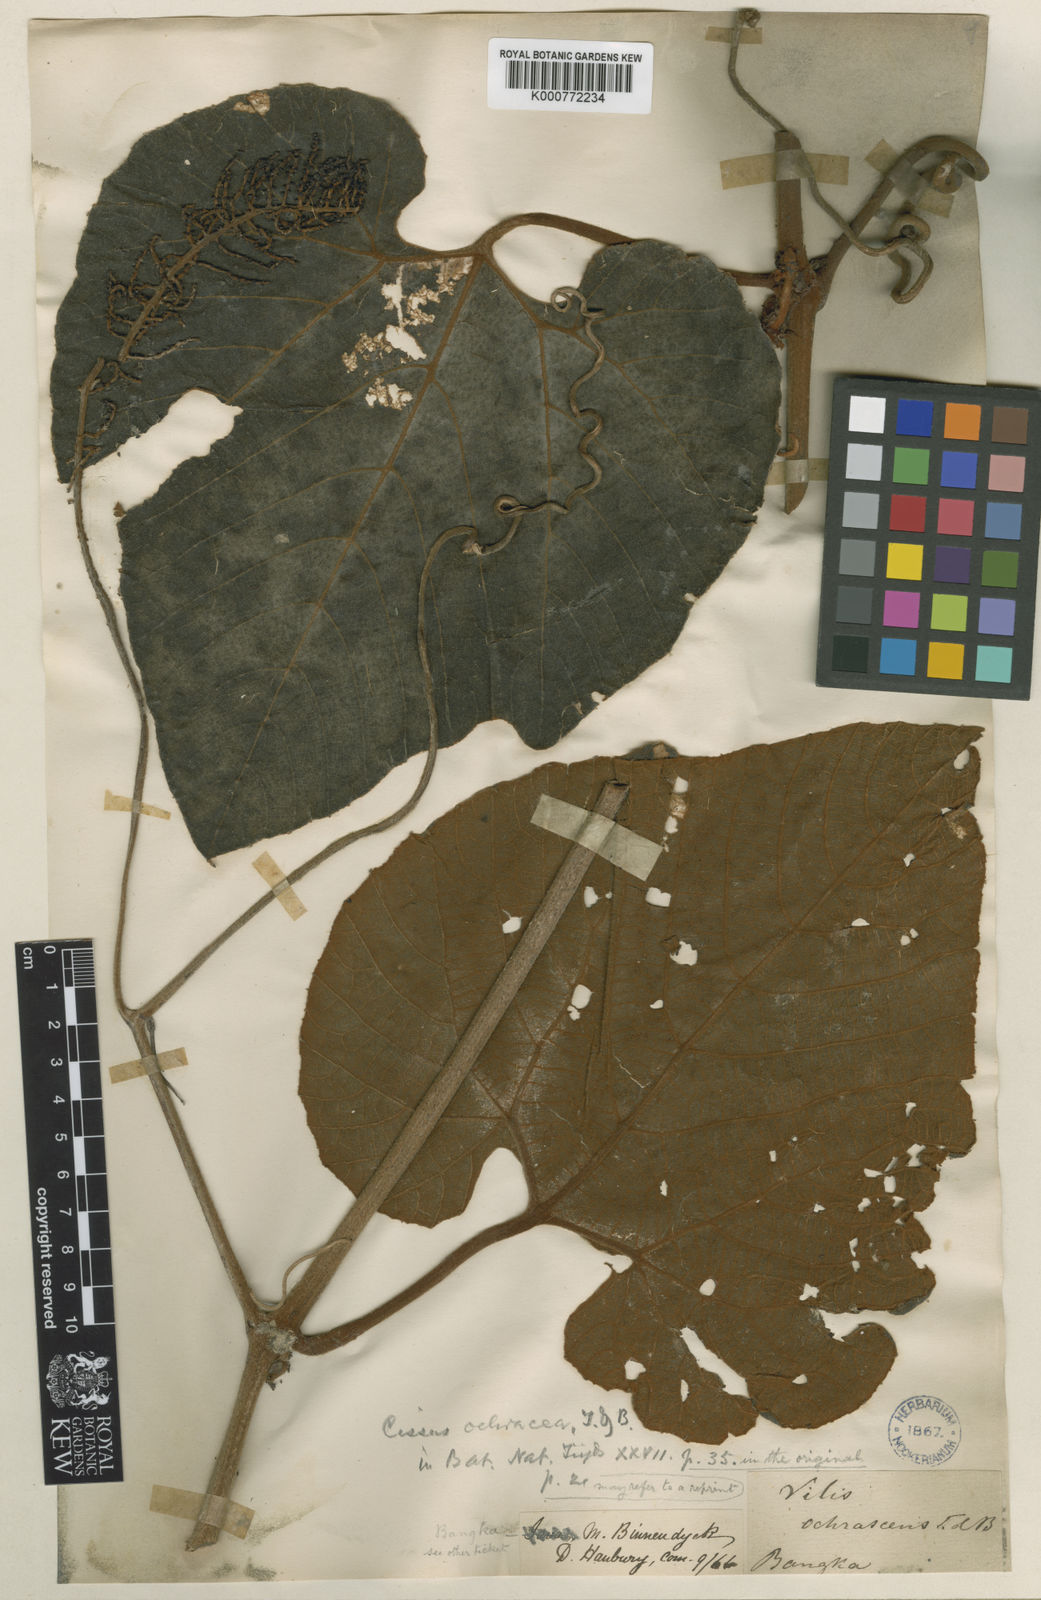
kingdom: Plantae
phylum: Tracheophyta
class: Magnoliopsida
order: Vitales
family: Vitaceae
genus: Ampelocissus
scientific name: Ampelocissus ochracea
